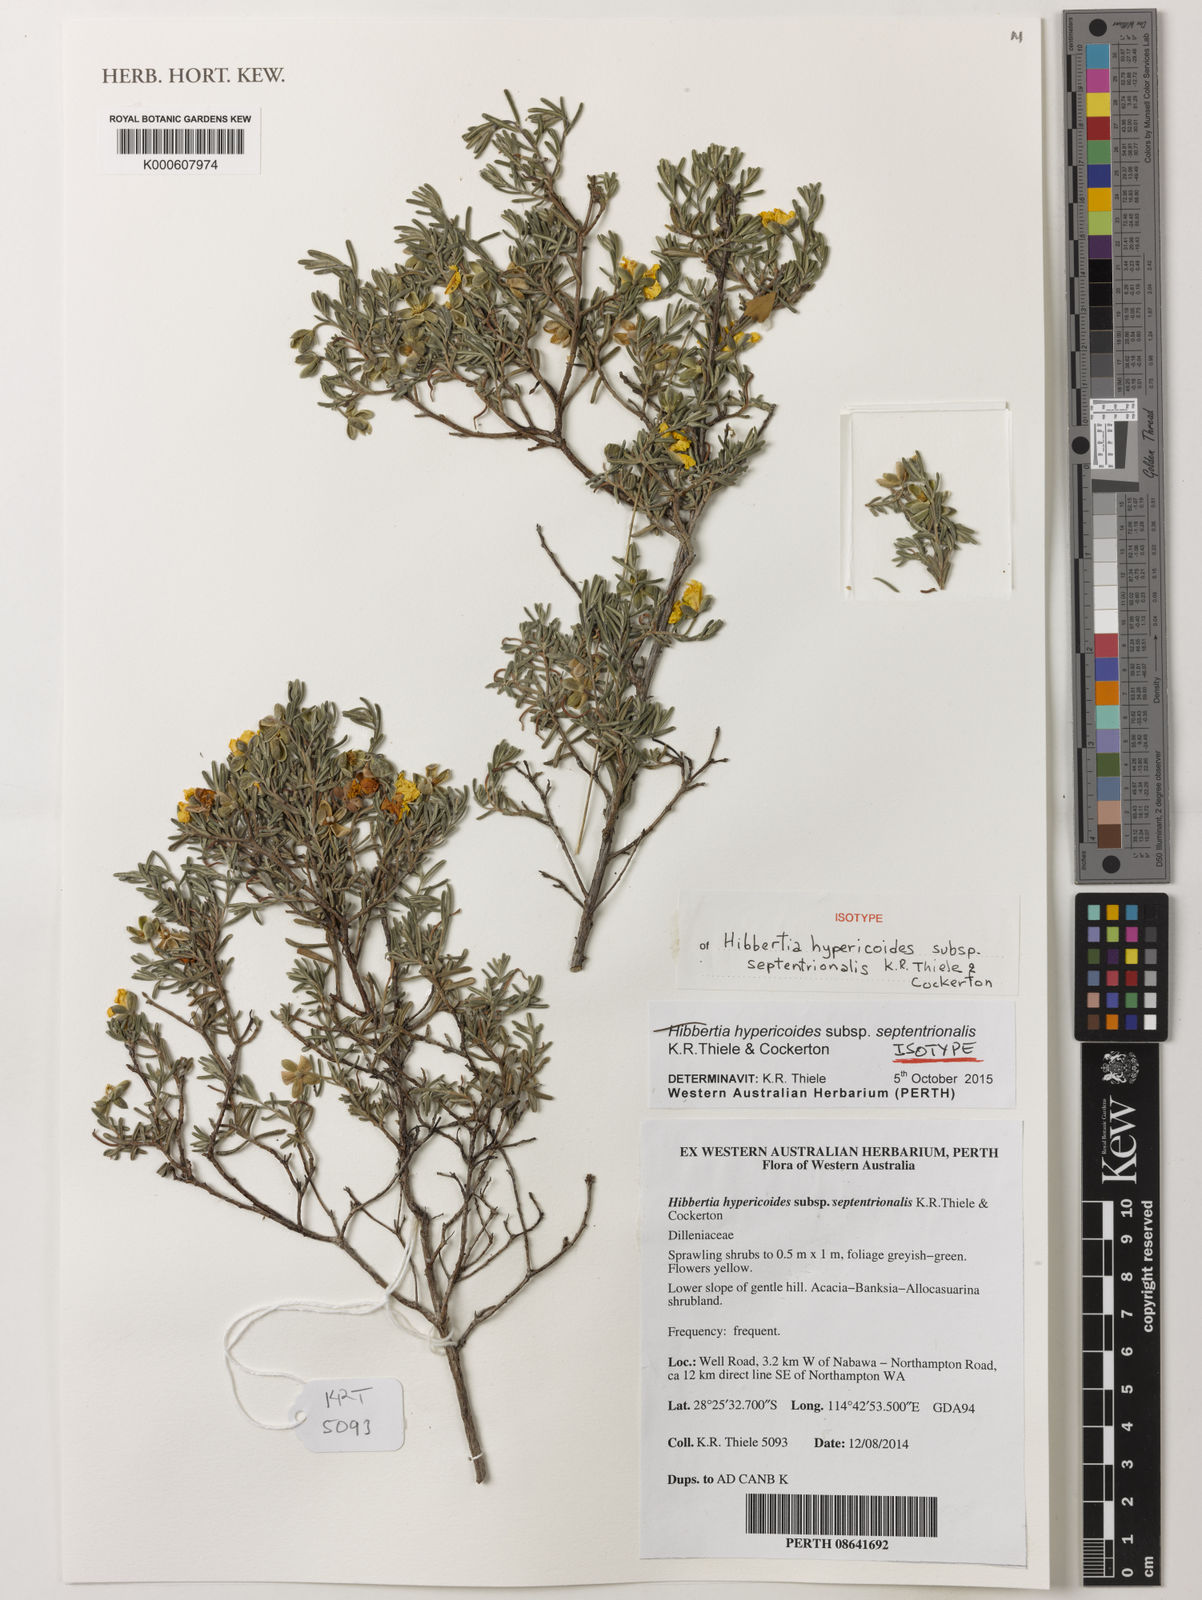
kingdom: Plantae
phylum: Tracheophyta
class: Magnoliopsida
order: Dilleniales
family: Dilleniaceae
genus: Hibbertia
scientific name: Hibbertia hypericoides
